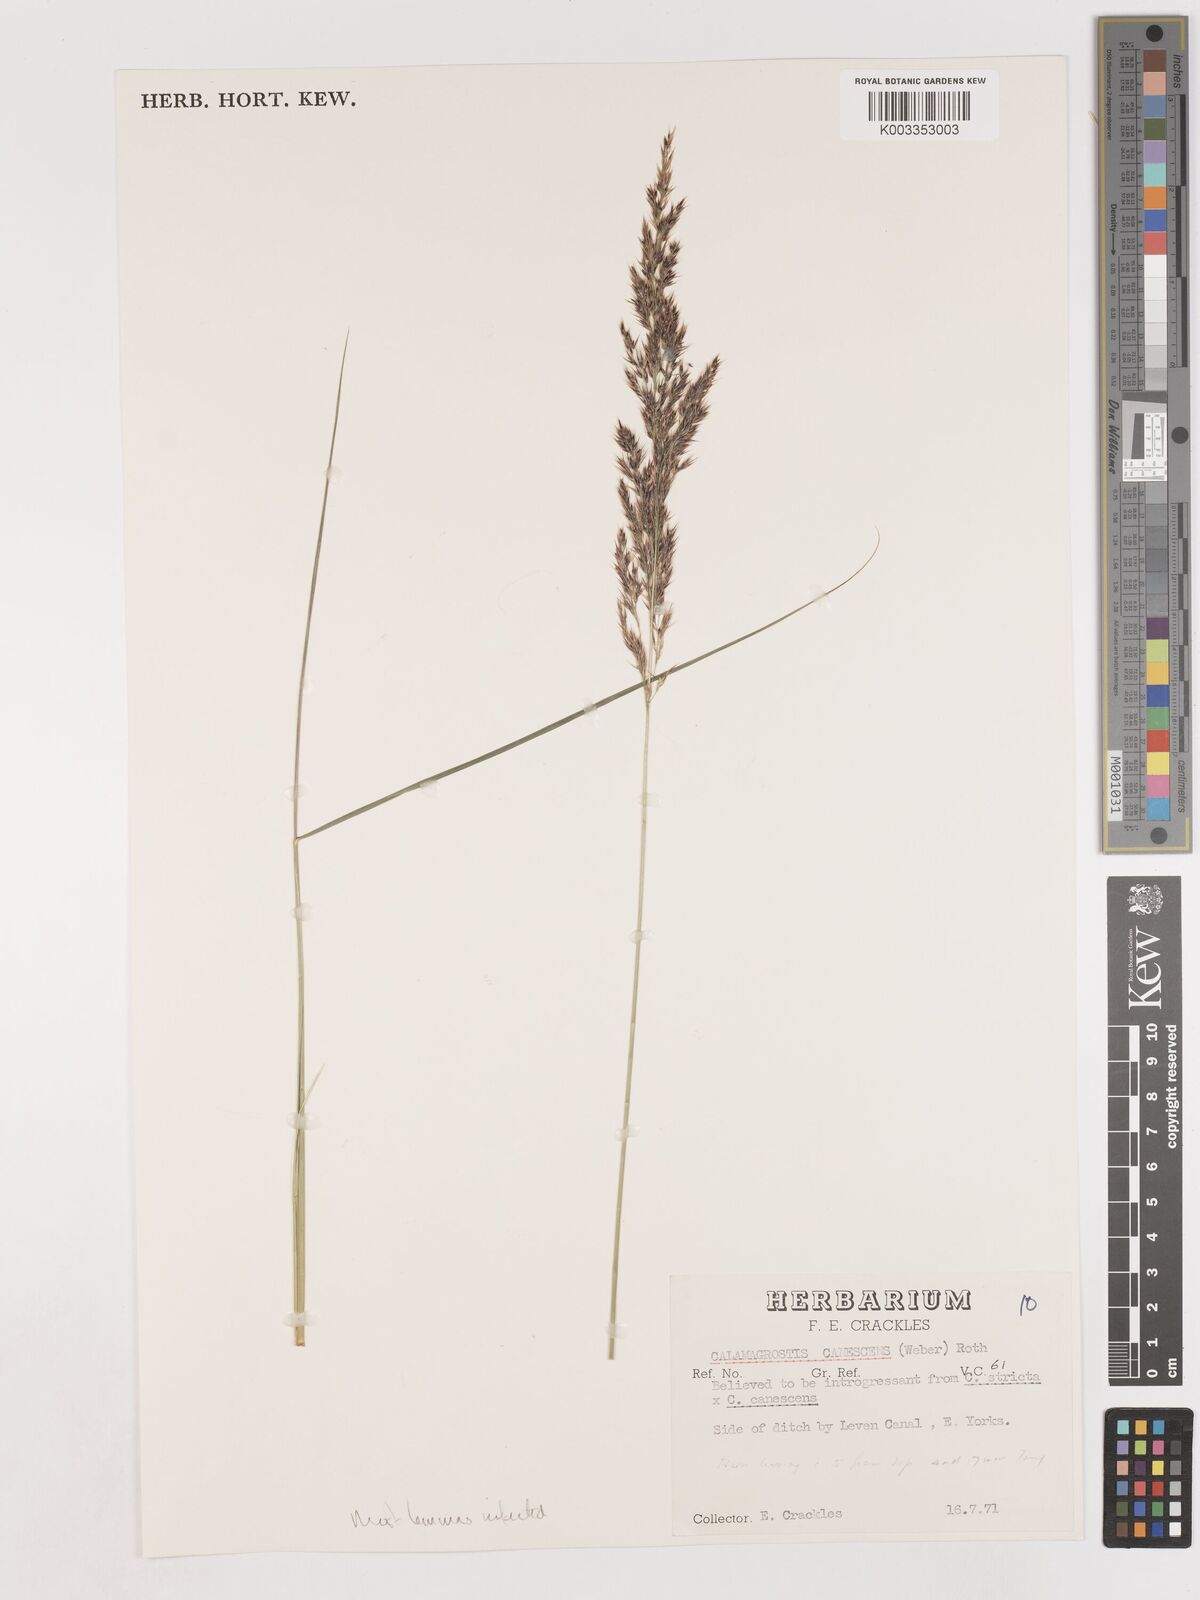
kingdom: Plantae
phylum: Tracheophyta
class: Liliopsida
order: Poales
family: Poaceae
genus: Calamagrostis
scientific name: Calamagrostis canescens
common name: Purple small-reed
